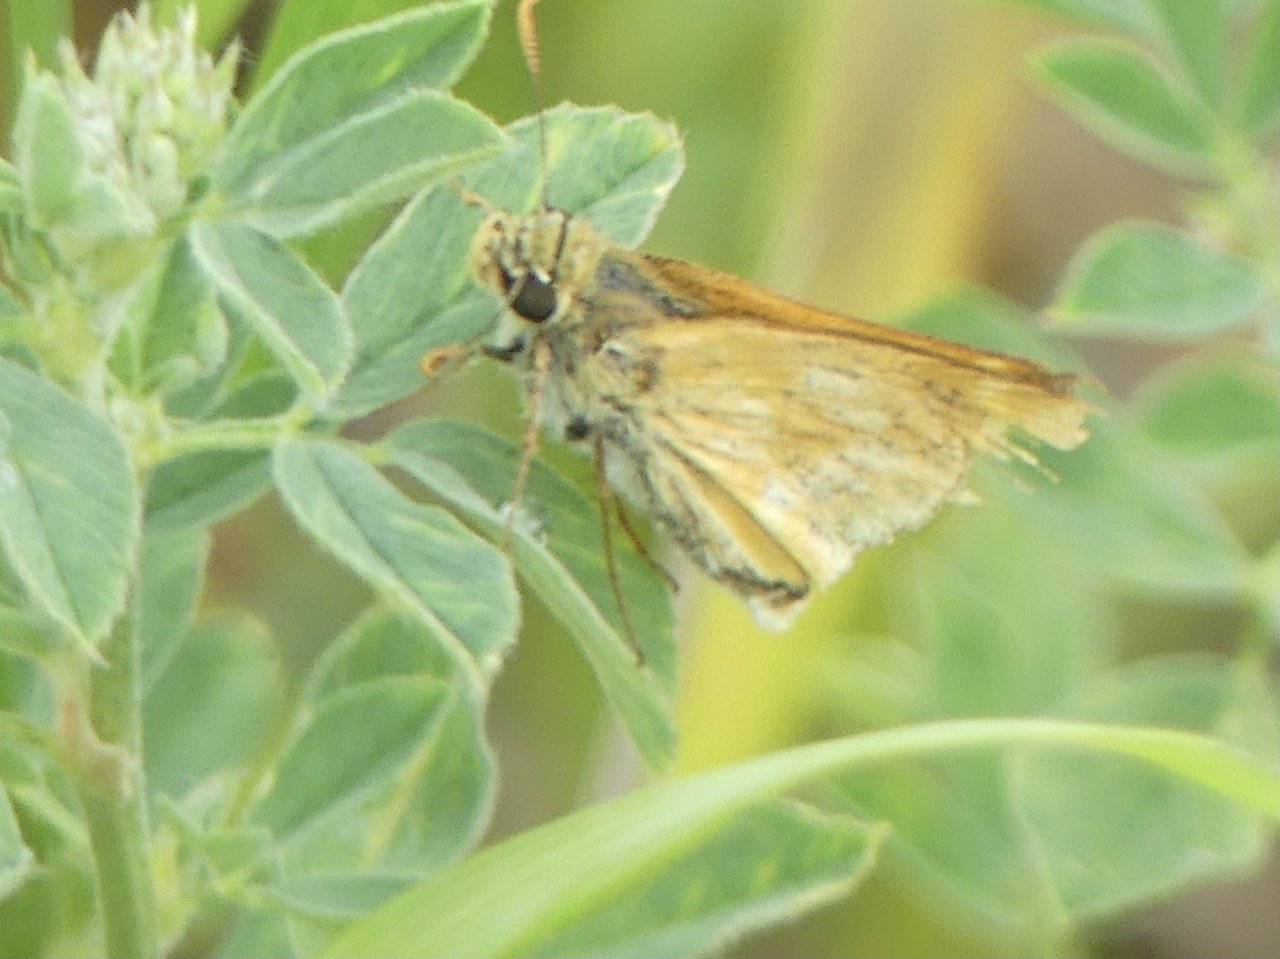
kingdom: Animalia
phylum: Arthropoda
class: Insecta
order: Lepidoptera
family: Hesperiidae
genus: Polites
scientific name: Polites coras
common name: Peck's Skipper
